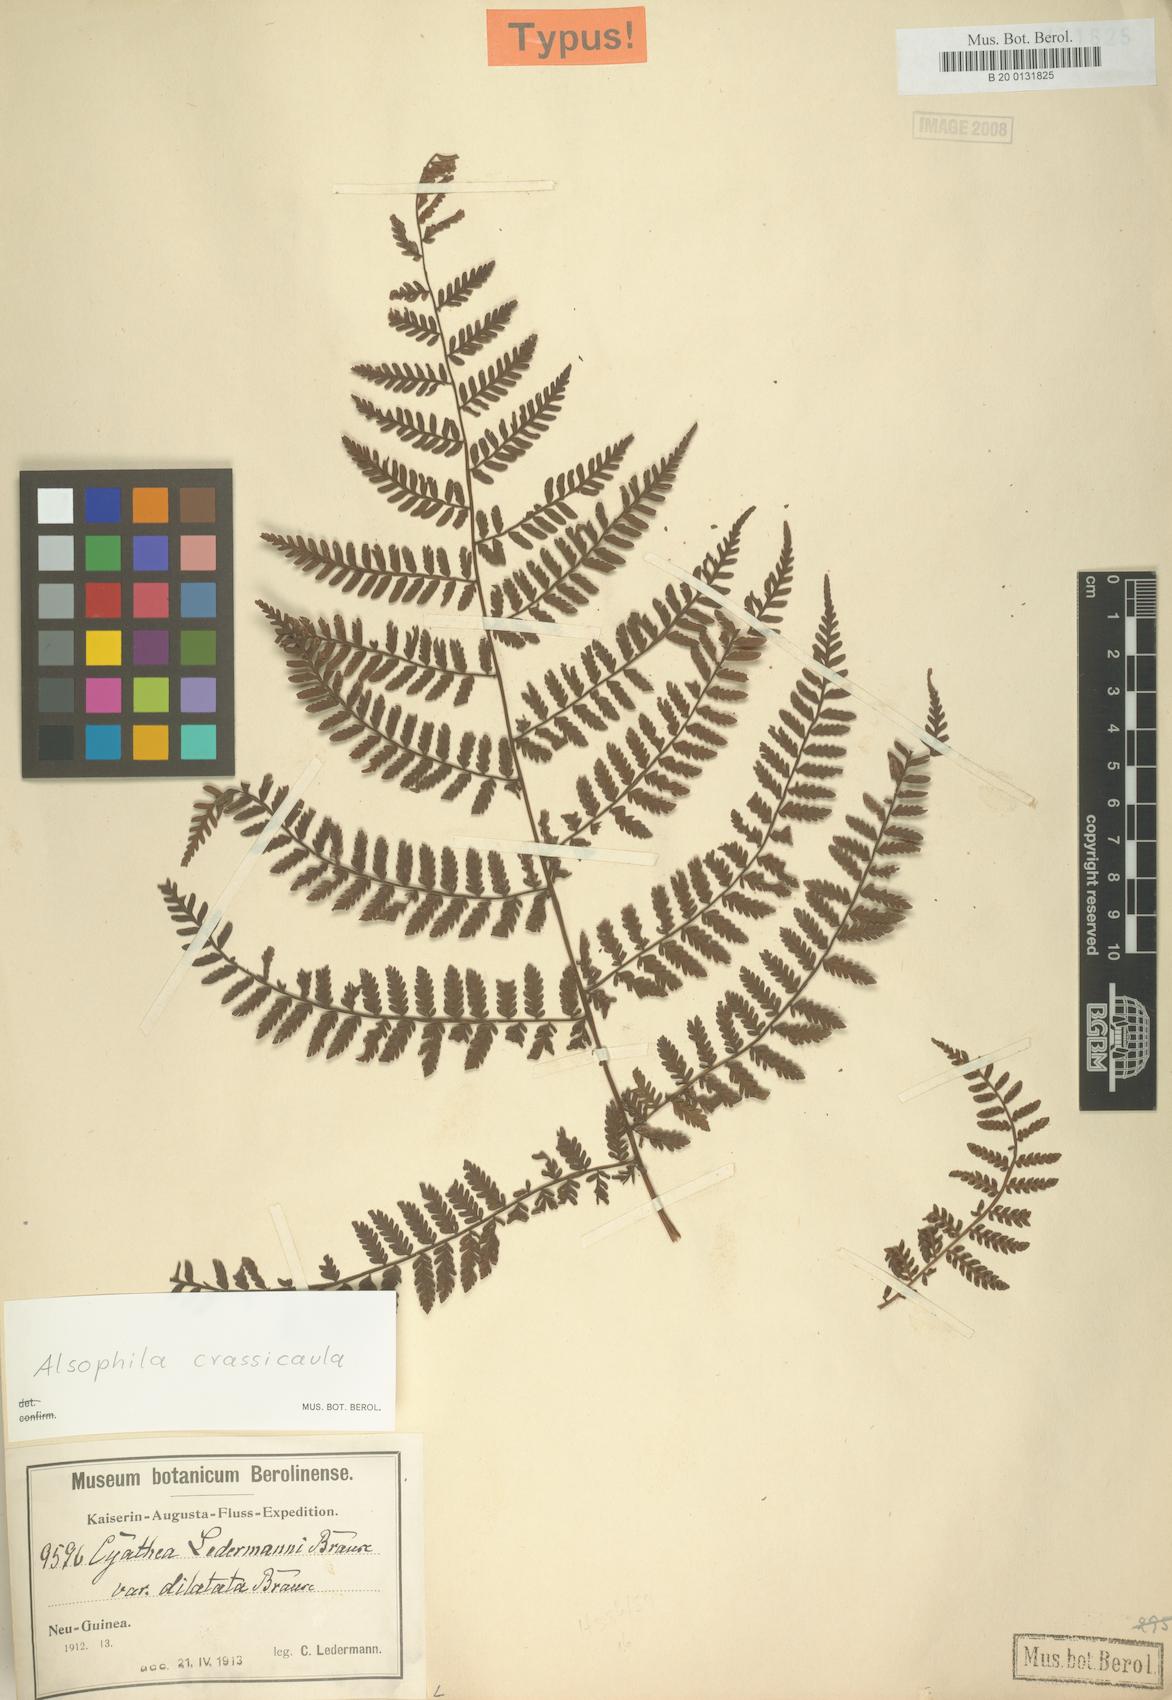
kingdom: Plantae
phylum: Tracheophyta
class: Polypodiopsida
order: Cyatheales
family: Cyatheaceae
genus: Alsophila
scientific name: Alsophila crassicaula
